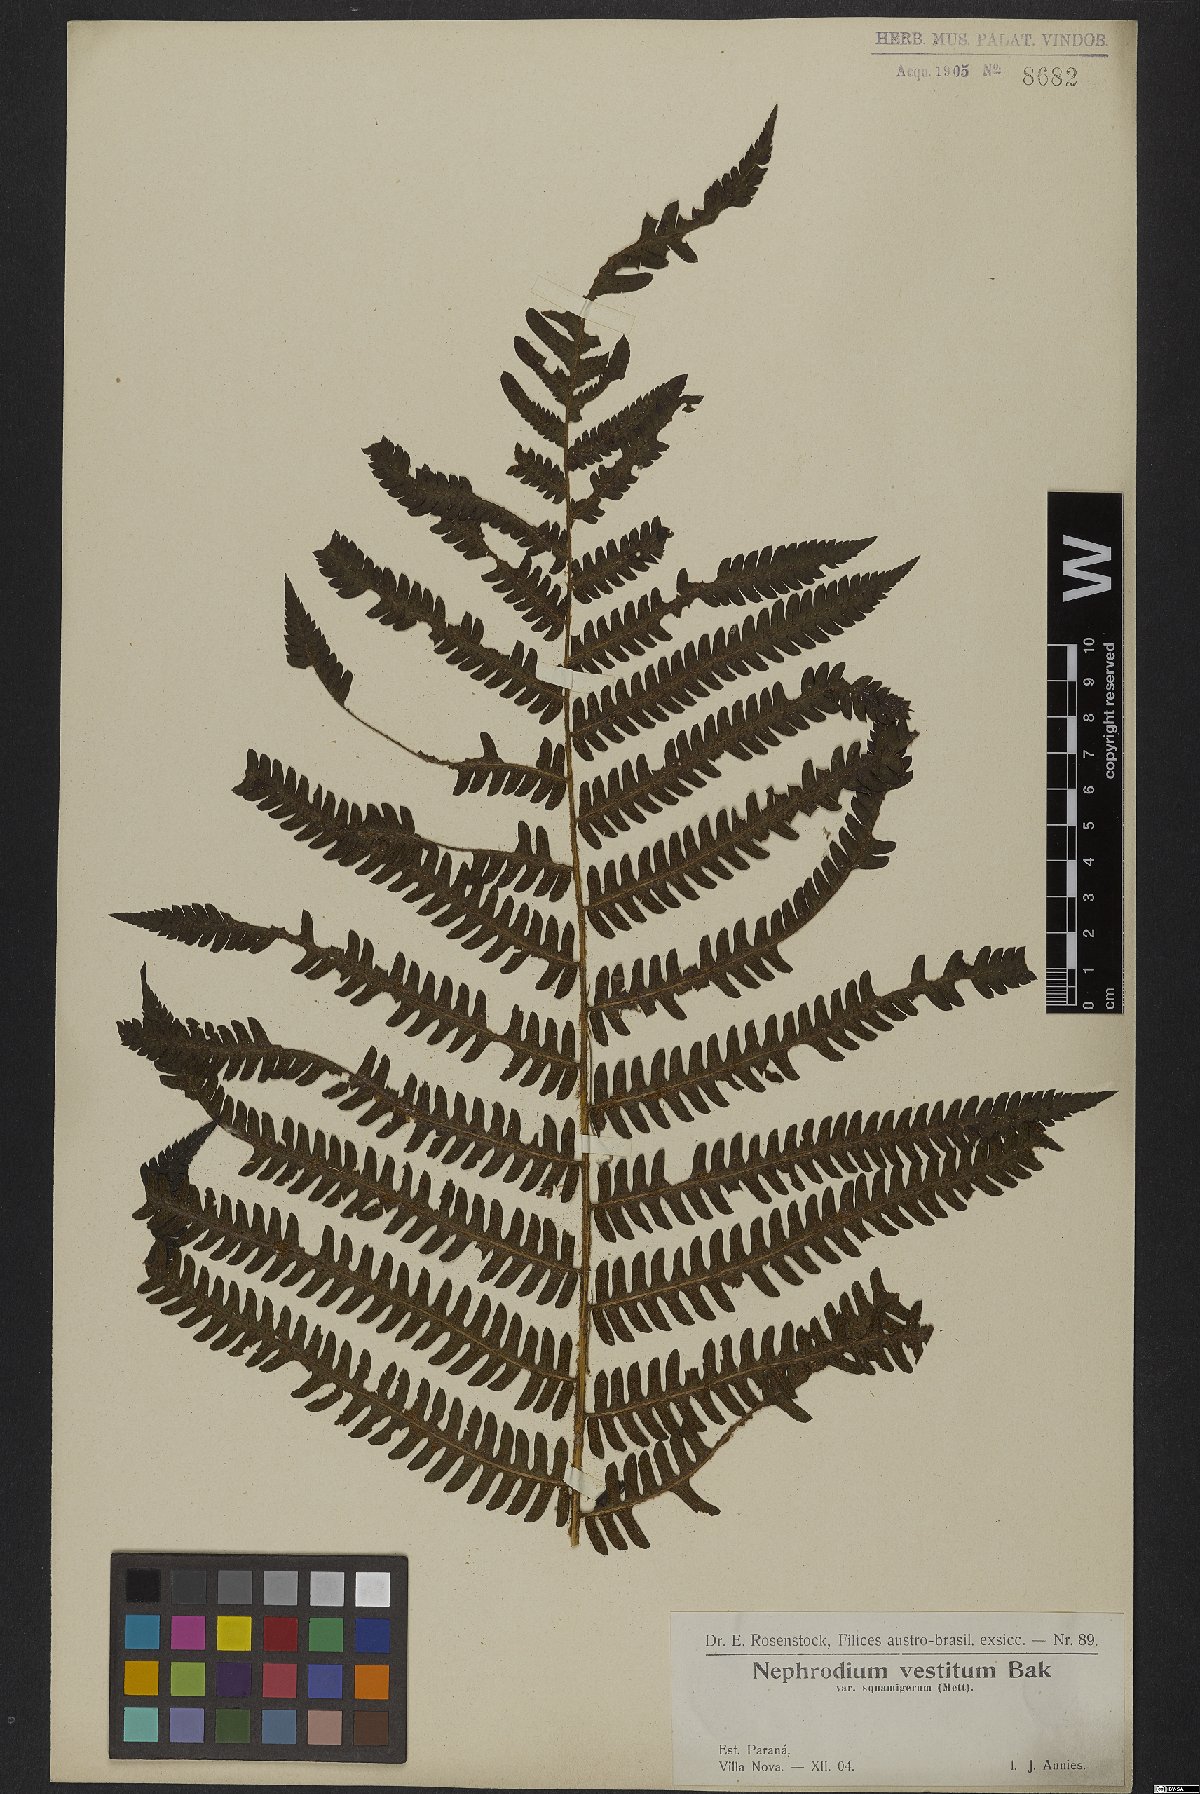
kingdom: Plantae
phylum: Tracheophyta
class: Polypodiopsida
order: Polypodiales
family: Dryopteridaceae
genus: Ctenitis
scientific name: Ctenitis deflexa
